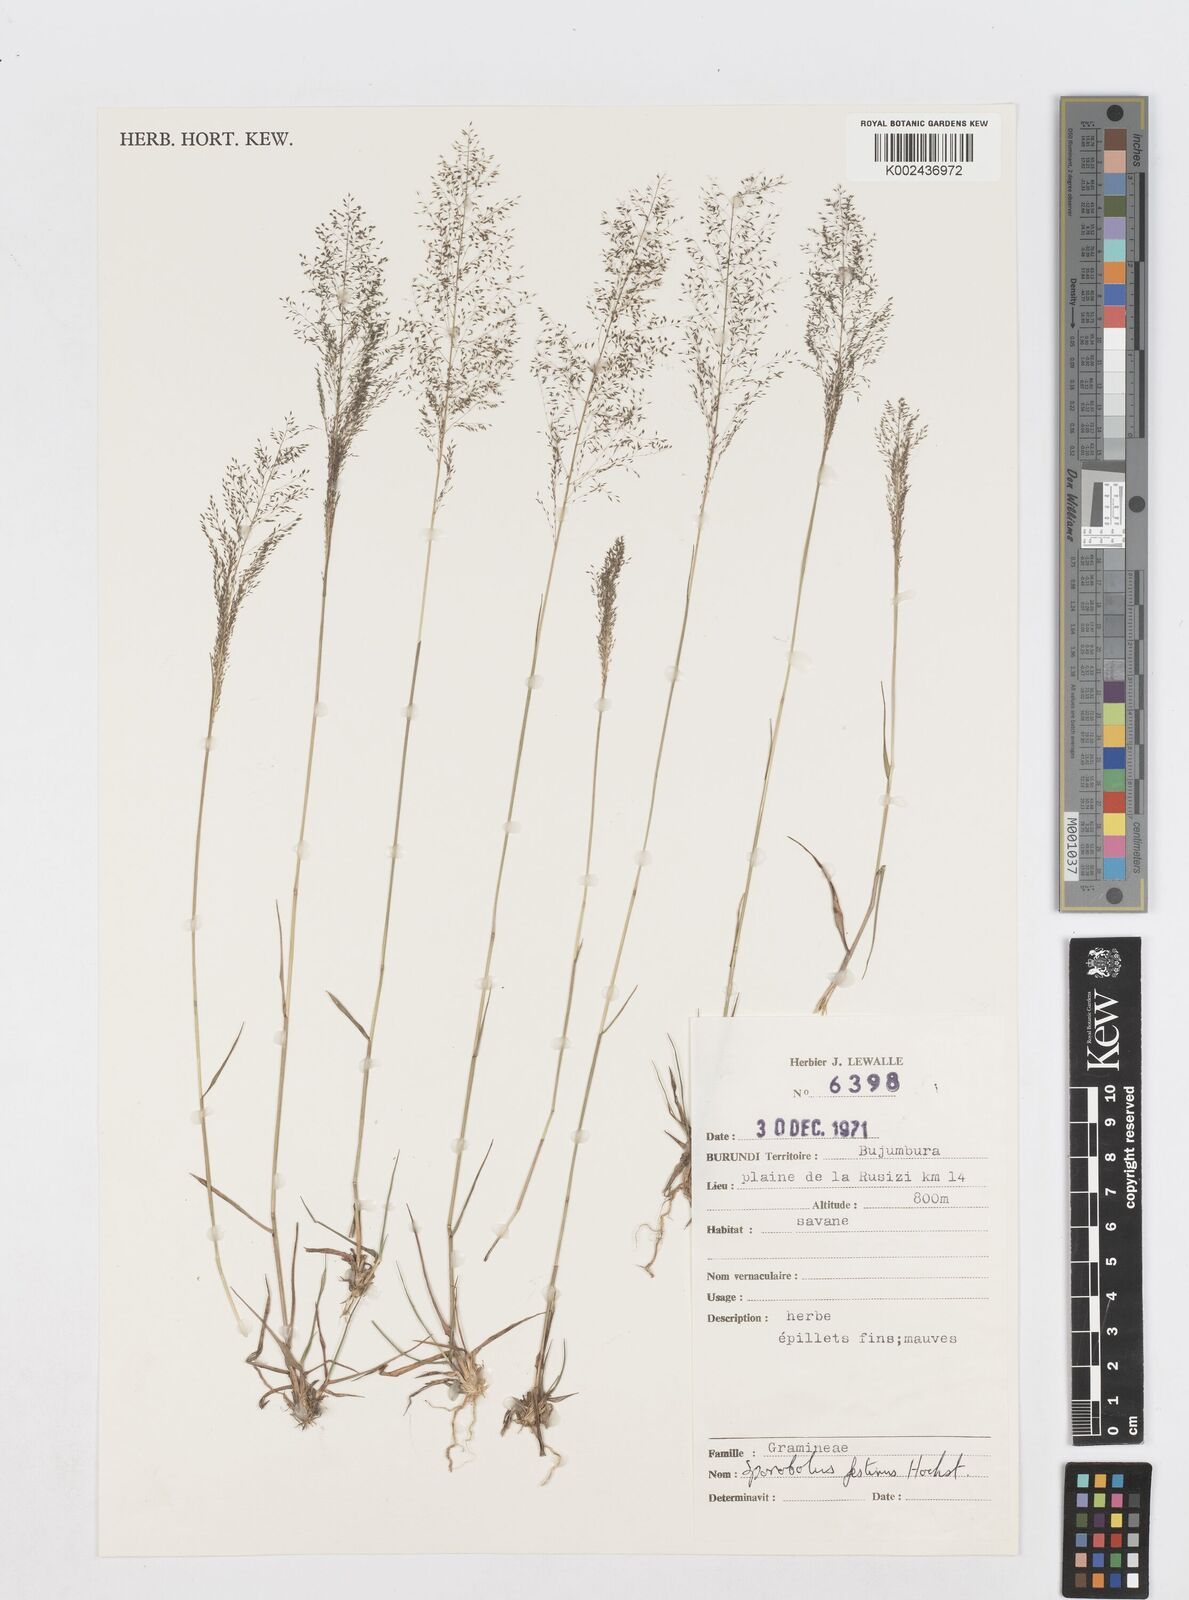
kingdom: Plantae
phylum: Tracheophyta
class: Liliopsida
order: Poales
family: Poaceae
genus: Sporobolus
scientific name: Sporobolus festivus
